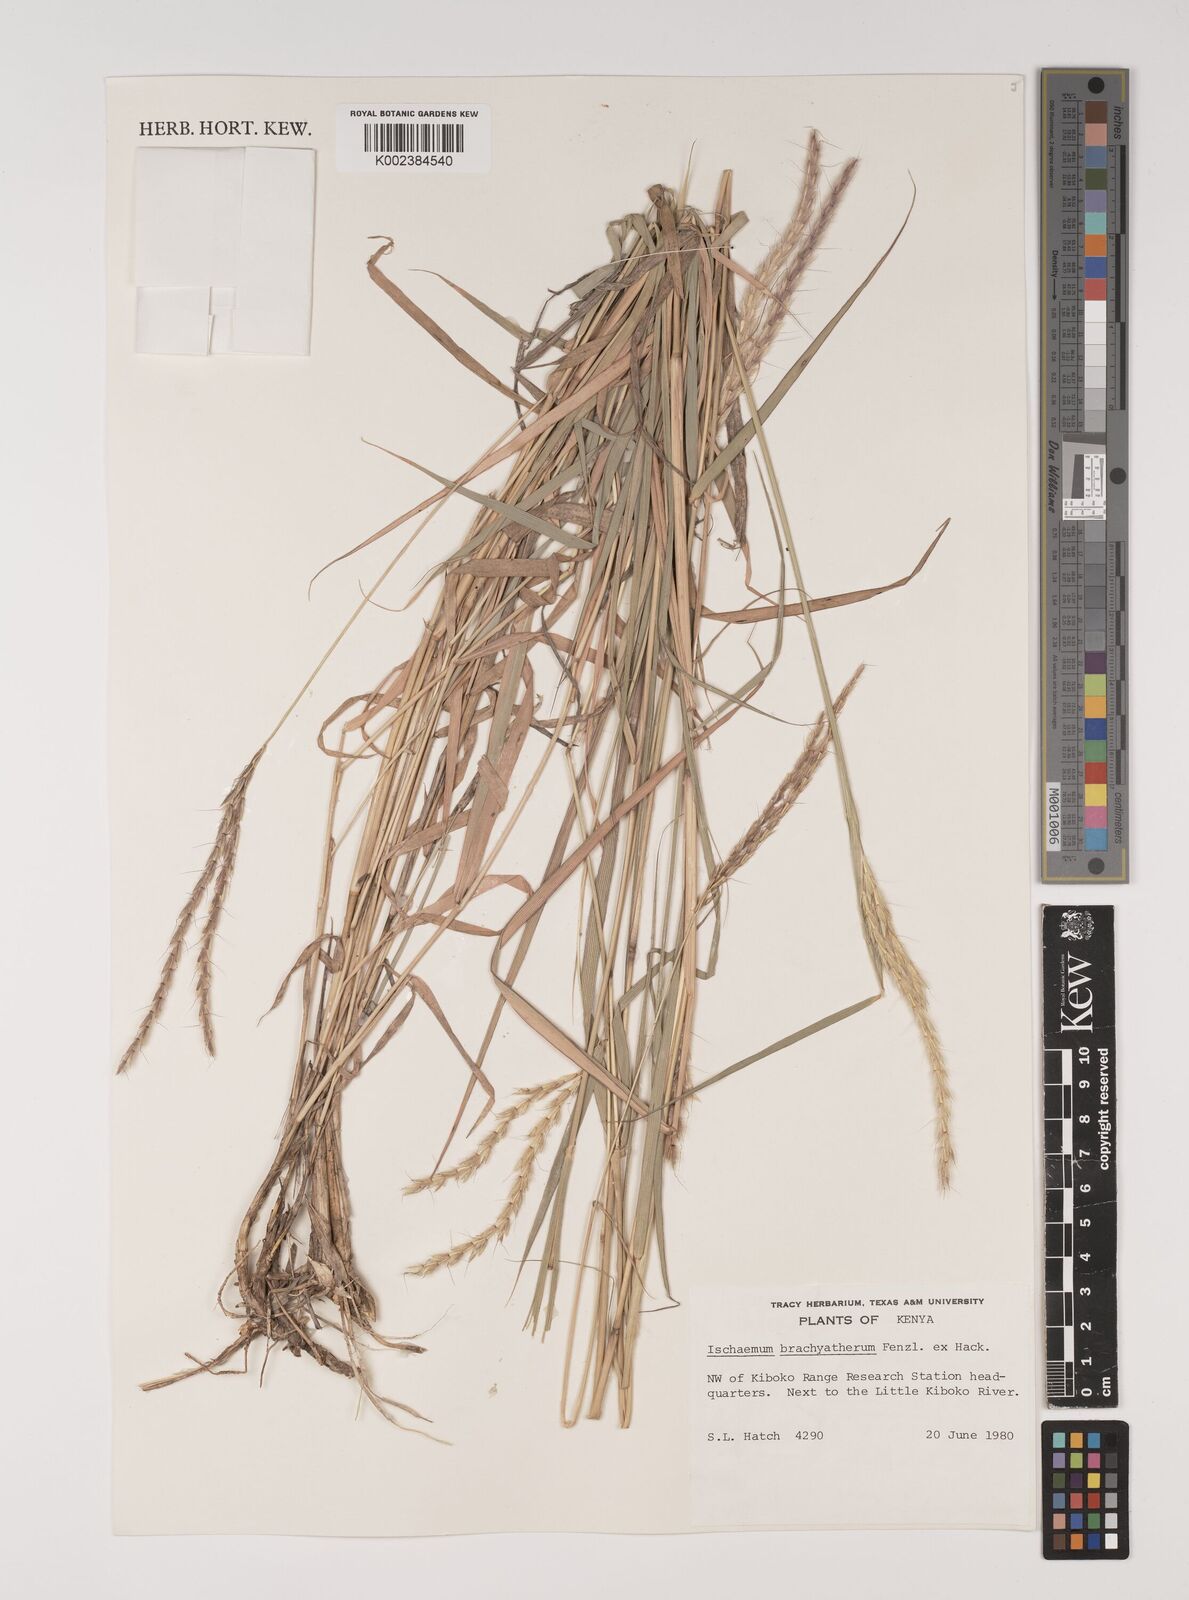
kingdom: Plantae
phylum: Tracheophyta
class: Liliopsida
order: Poales
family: Poaceae
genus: Ischaemum
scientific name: Ischaemum afrum
